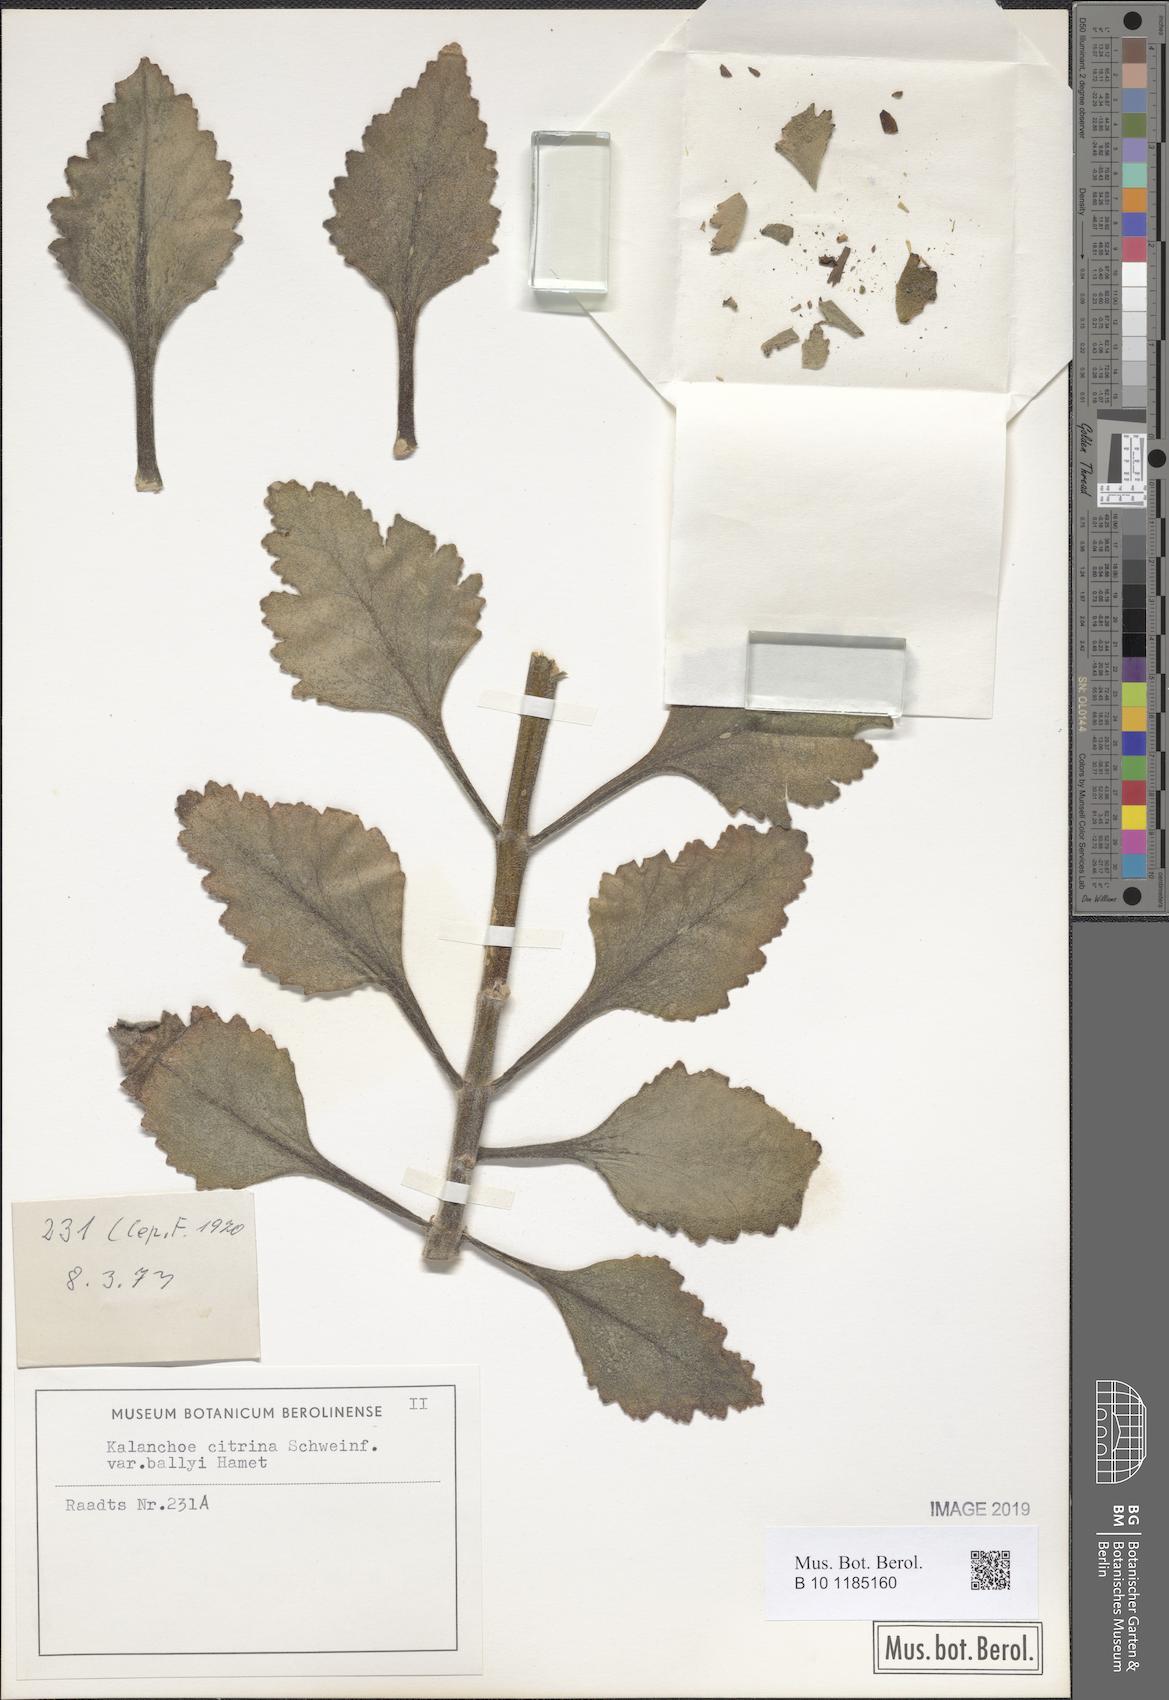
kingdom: Plantae
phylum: Tracheophyta
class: Magnoliopsida
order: Saxifragales
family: Crassulaceae
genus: Kalanchoe
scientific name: Kalanchoe citrina
